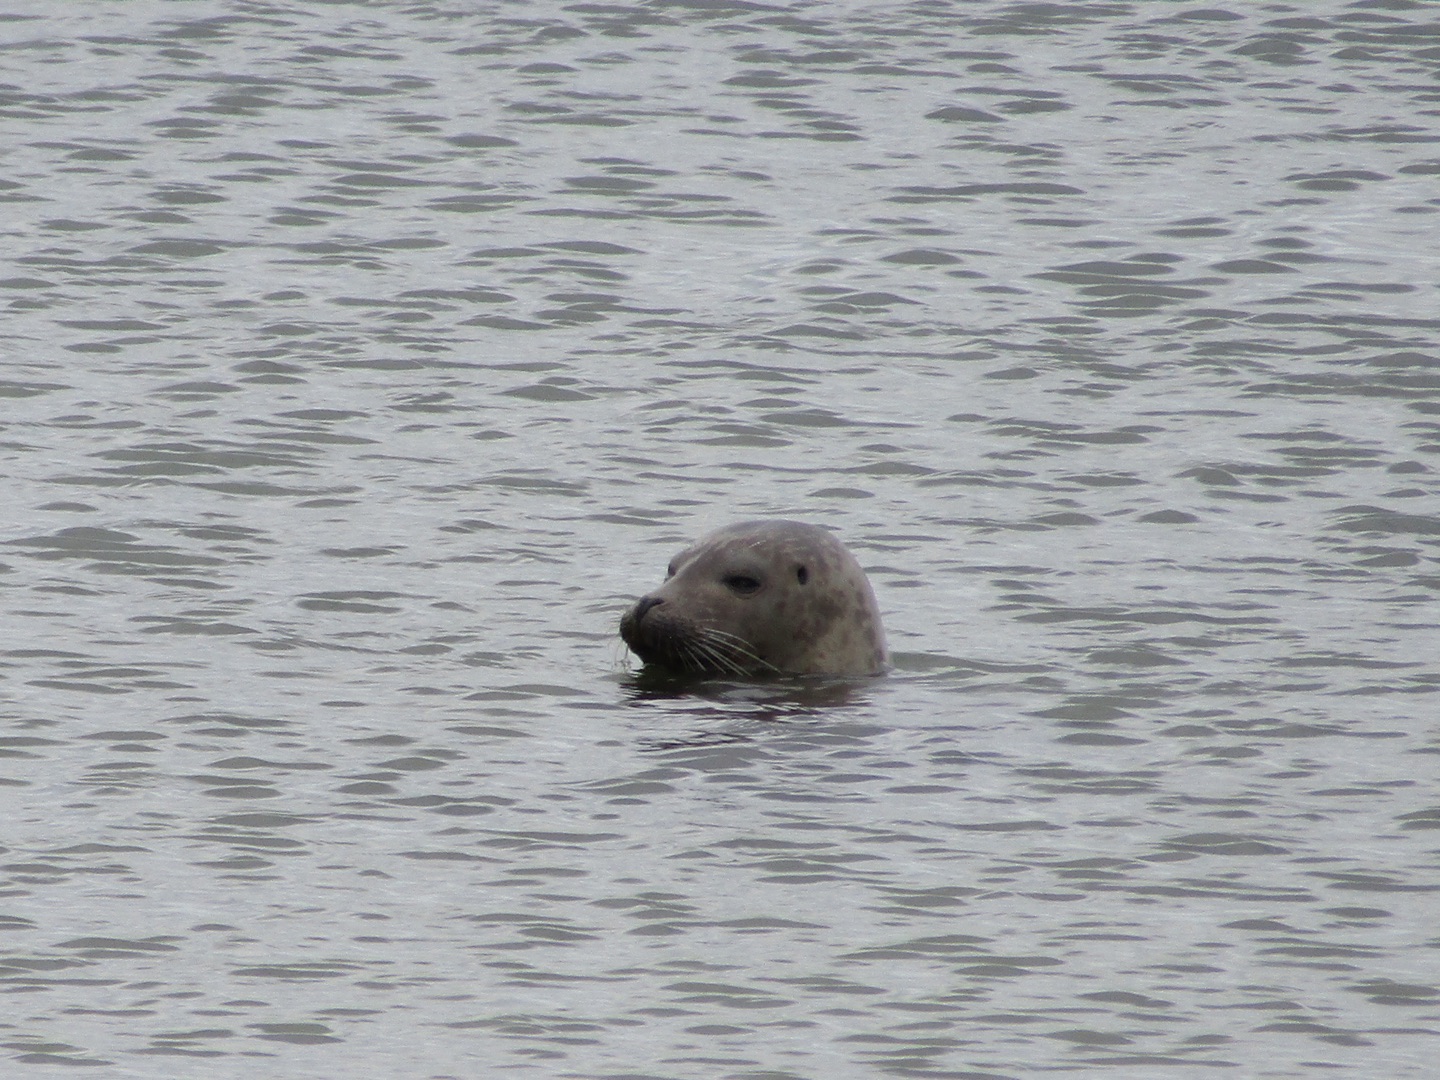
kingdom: Animalia
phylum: Chordata
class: Mammalia
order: Carnivora
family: Phocidae
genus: Phoca
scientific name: Phoca vitulina
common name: Spættet sæl
